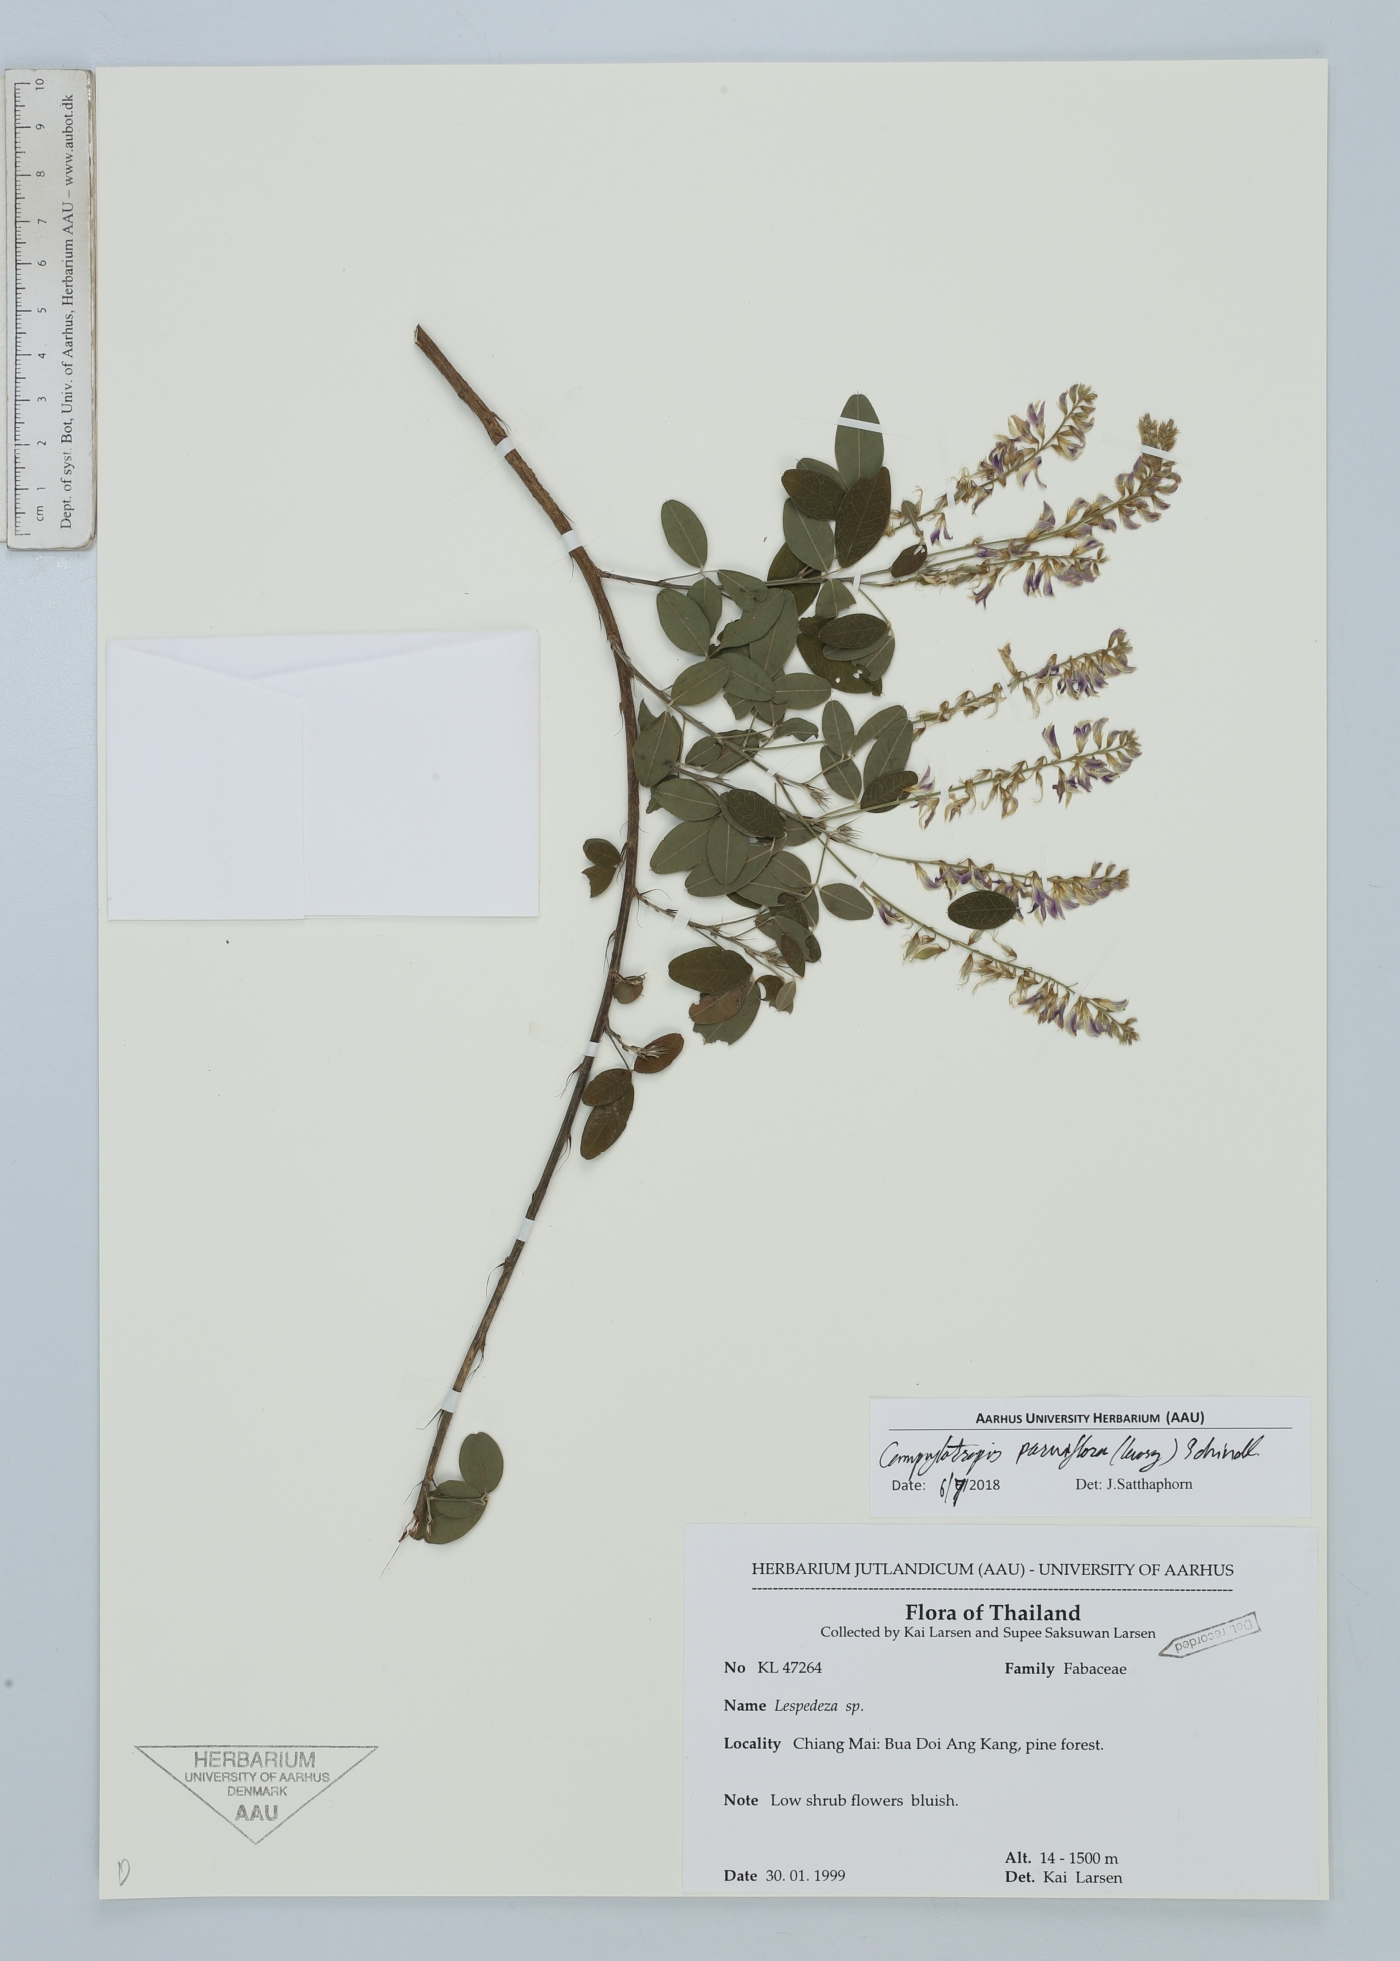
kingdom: Plantae
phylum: Tracheophyta
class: Magnoliopsida
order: Fabales
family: Fabaceae
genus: Campylotropis
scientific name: Campylotropis parviflora
